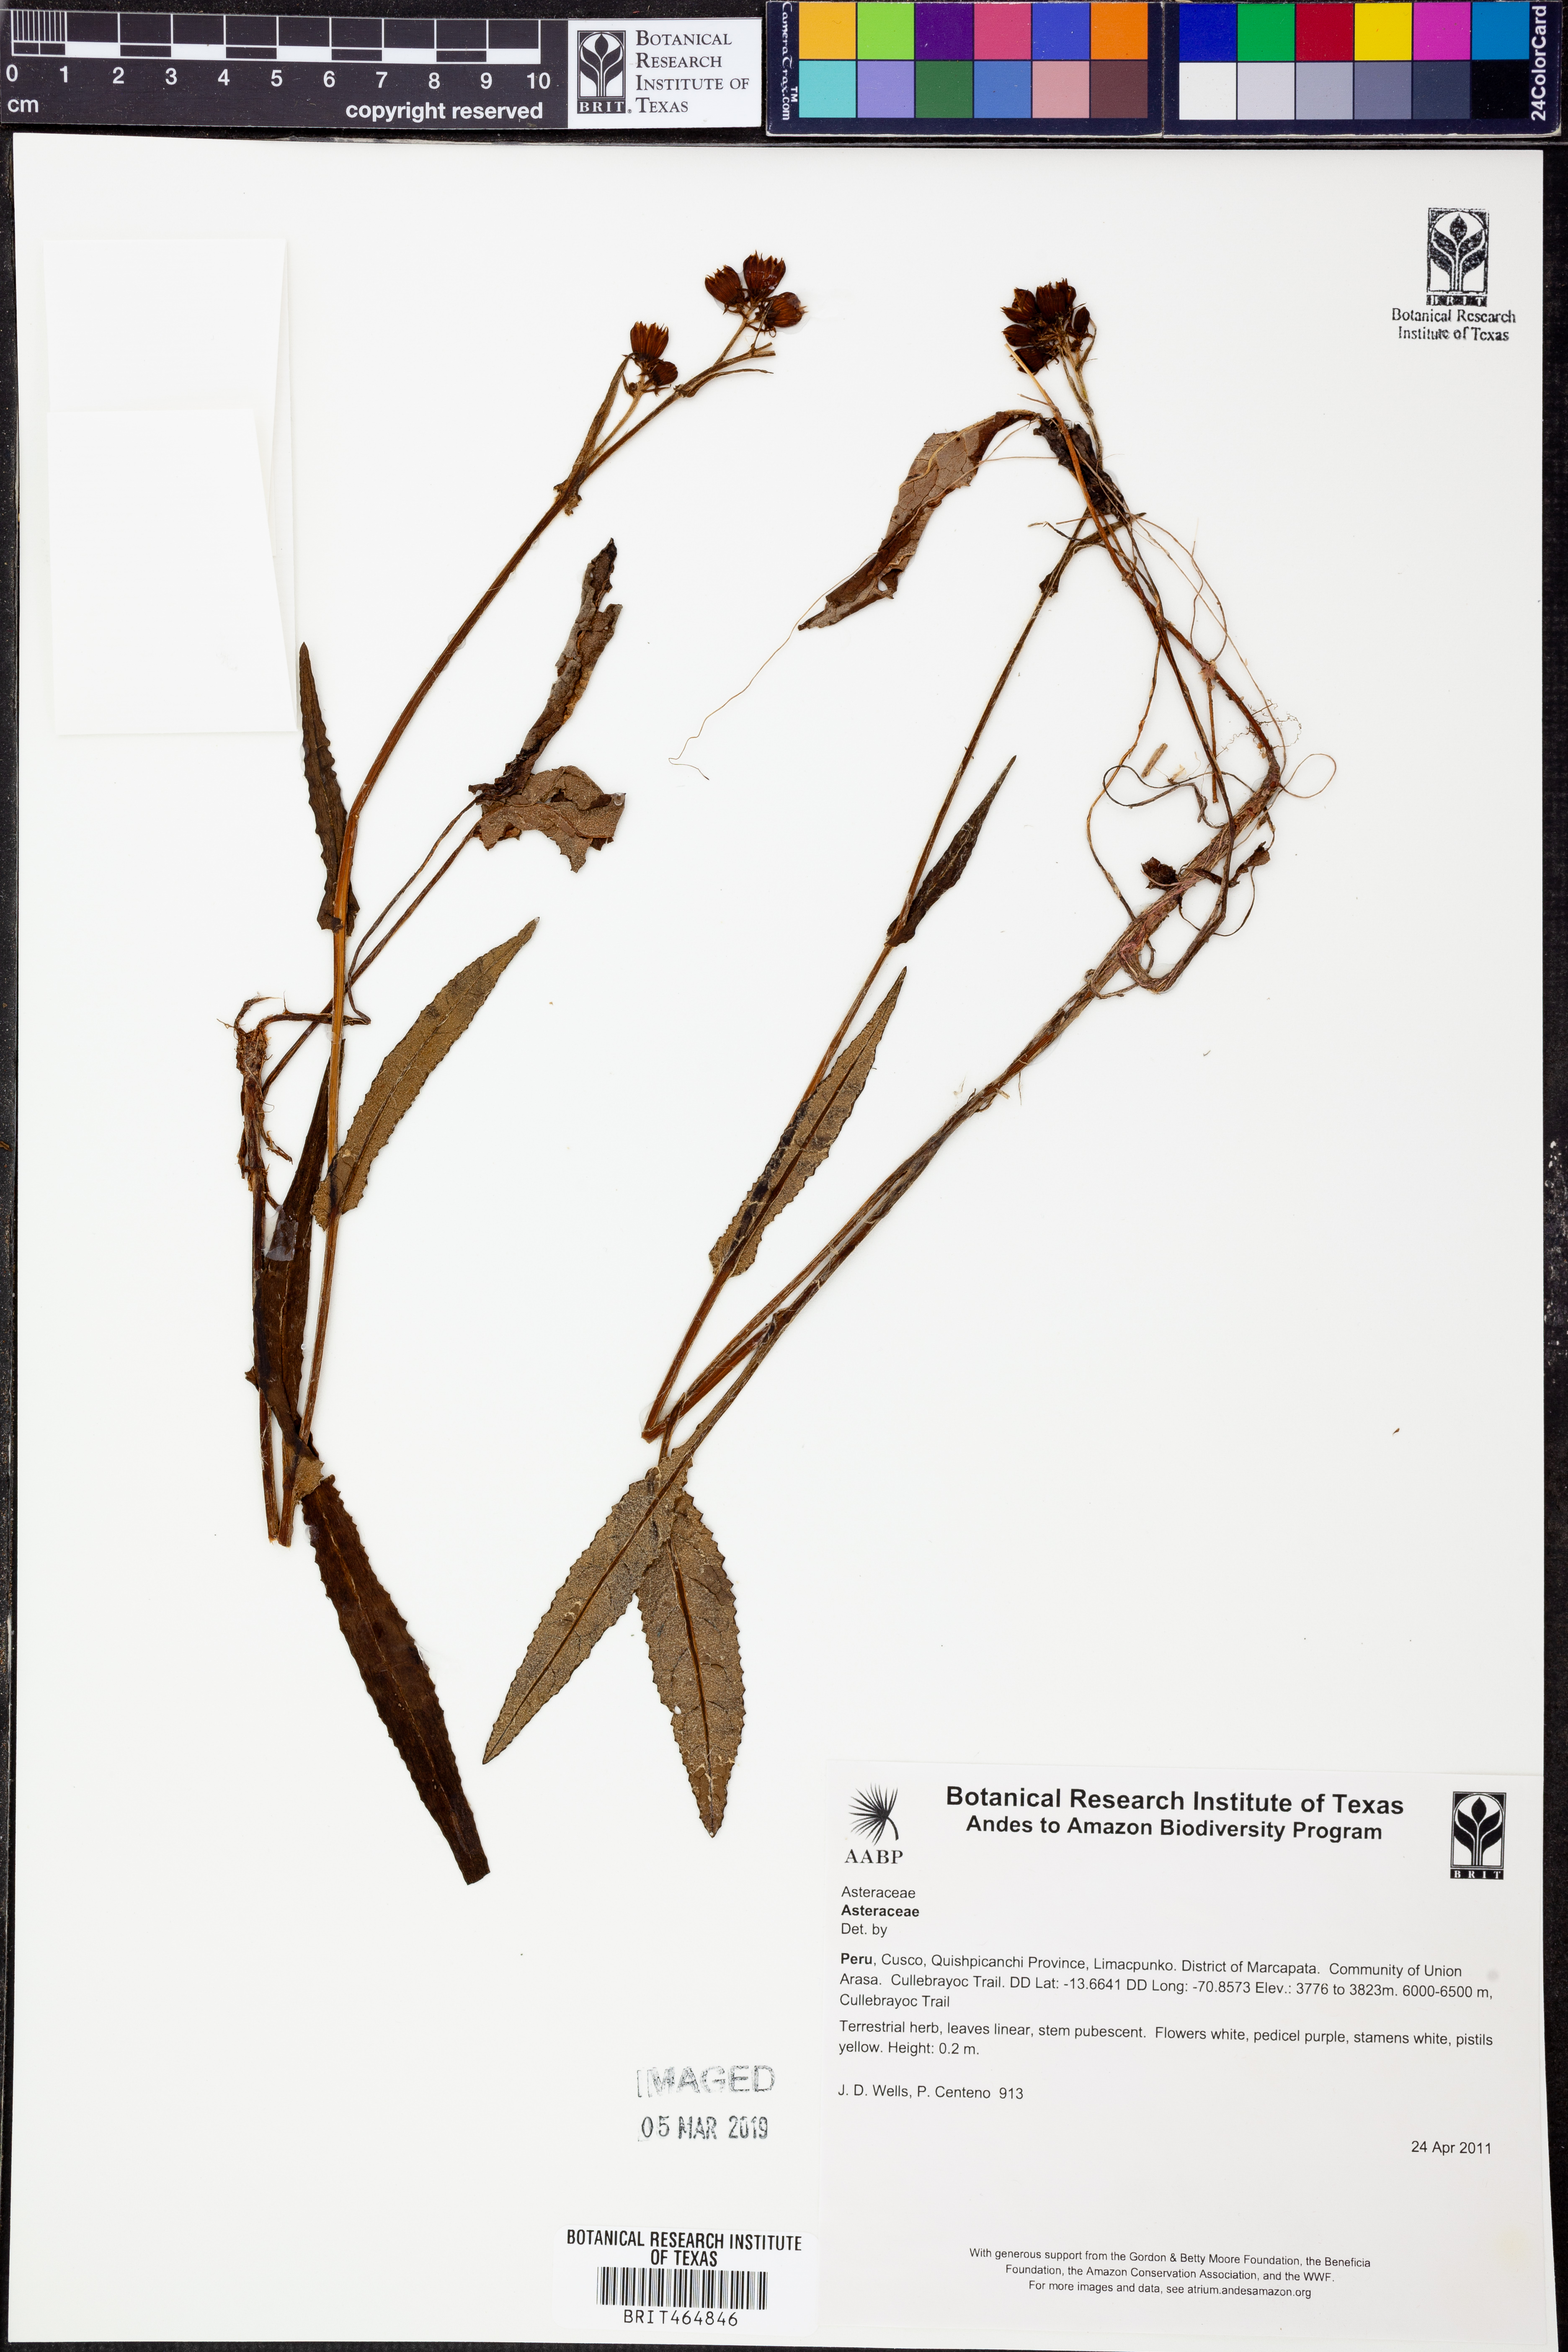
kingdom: Plantae
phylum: Tracheophyta
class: Magnoliopsida
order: Asterales
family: Asteraceae
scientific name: Asteraceae
